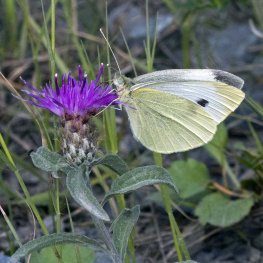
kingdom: Animalia
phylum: Arthropoda
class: Insecta
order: Lepidoptera
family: Pieridae
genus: Pieris
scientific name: Pieris rapae
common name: Cabbage White
